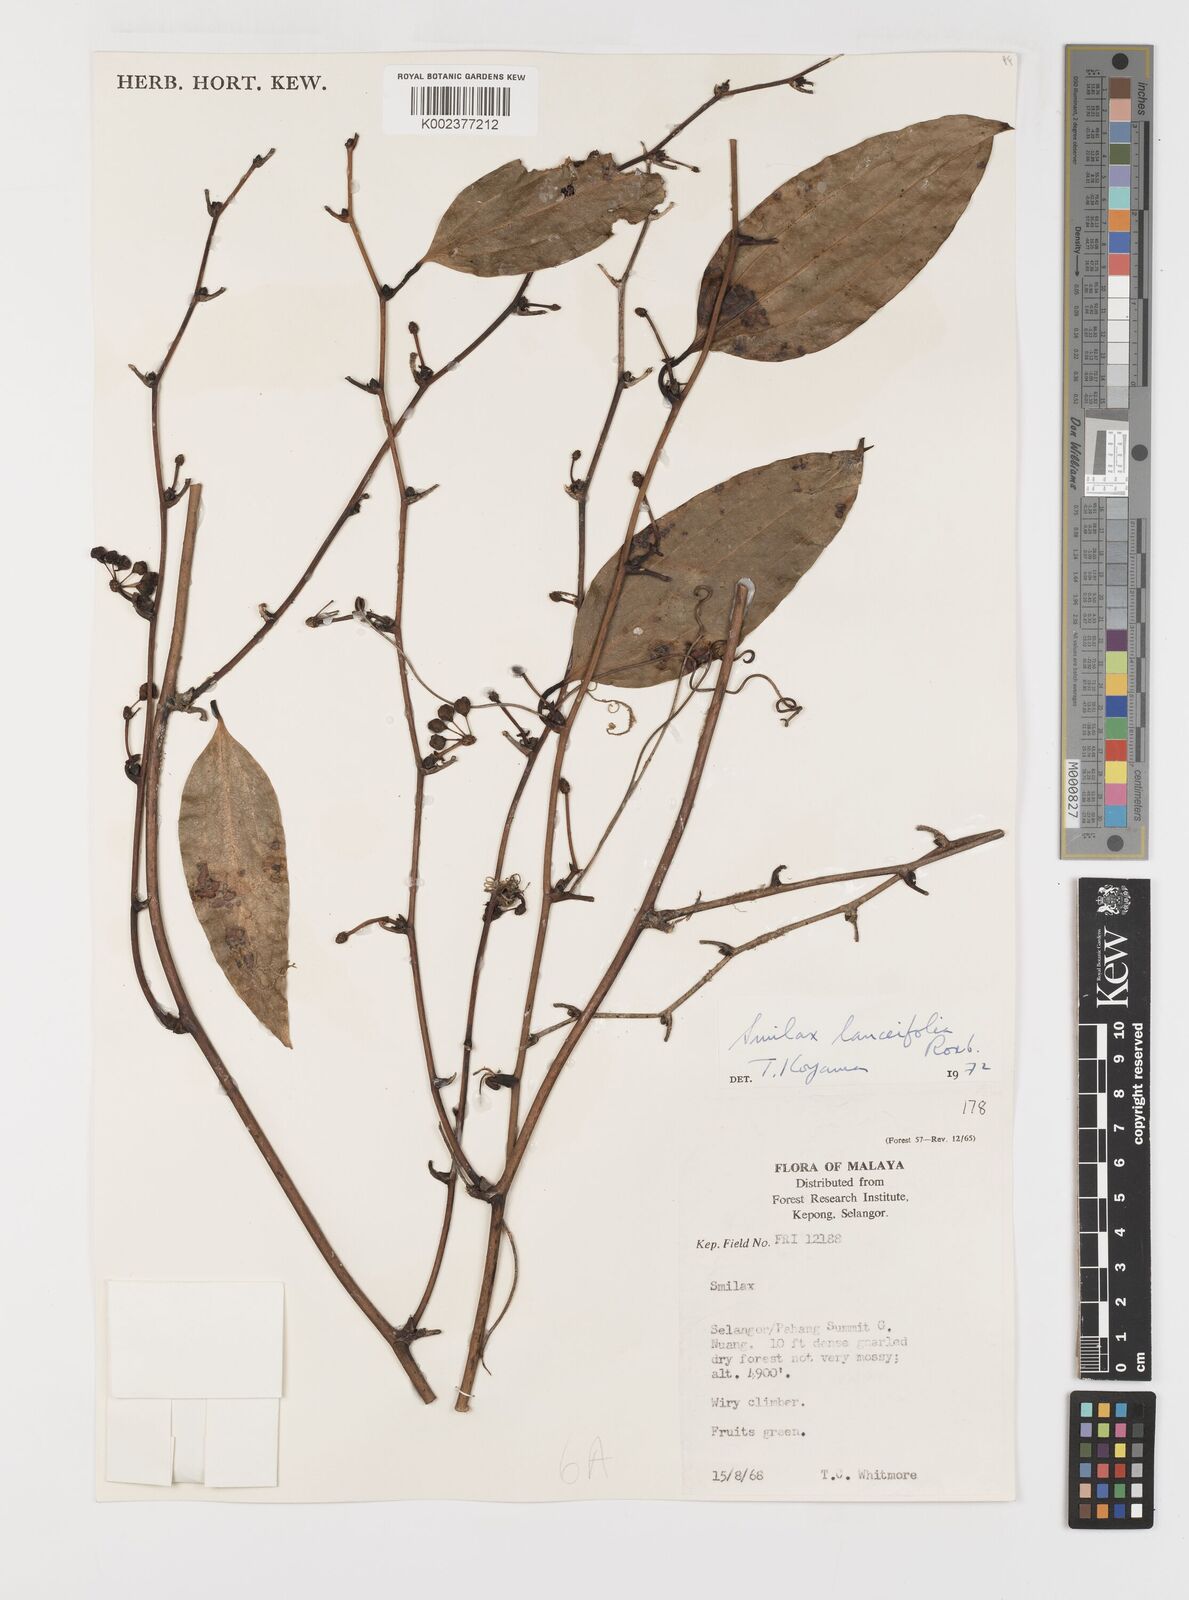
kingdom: Plantae
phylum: Tracheophyta
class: Liliopsida
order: Liliales
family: Smilacaceae
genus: Smilax
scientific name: Smilax lanceifolia
